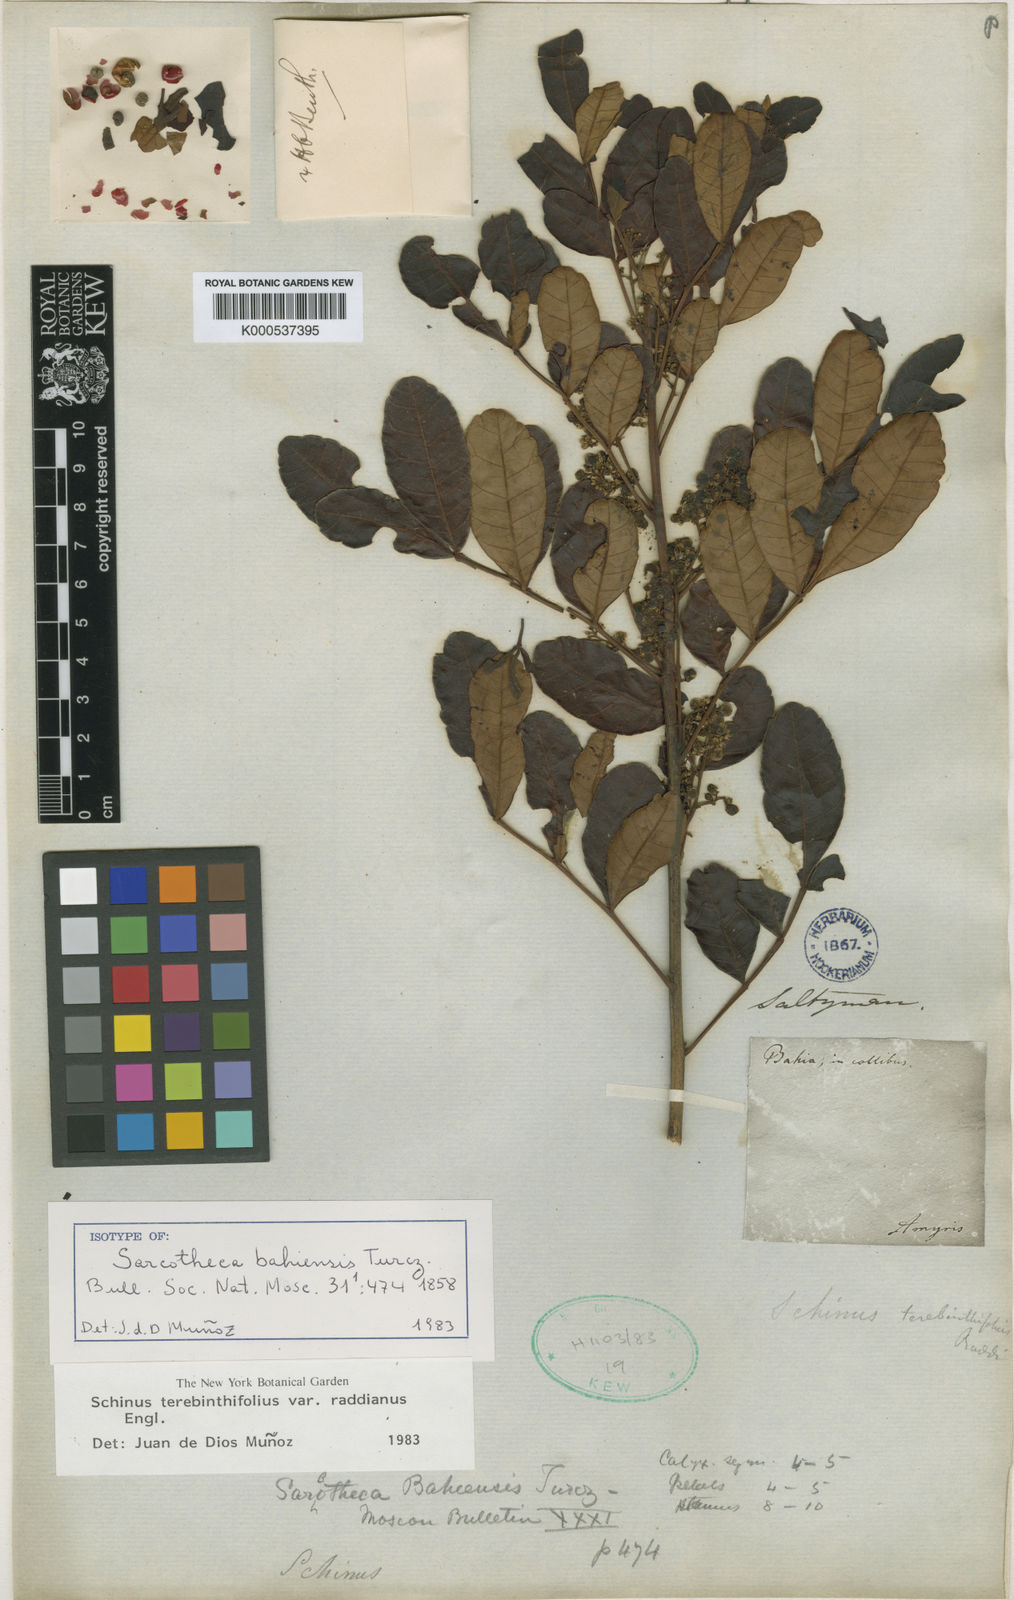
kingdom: Plantae
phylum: Tracheophyta
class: Magnoliopsida
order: Sapindales
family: Anacardiaceae
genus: Schinus
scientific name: Schinus terebinthifolia
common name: Brazilian peppertree
